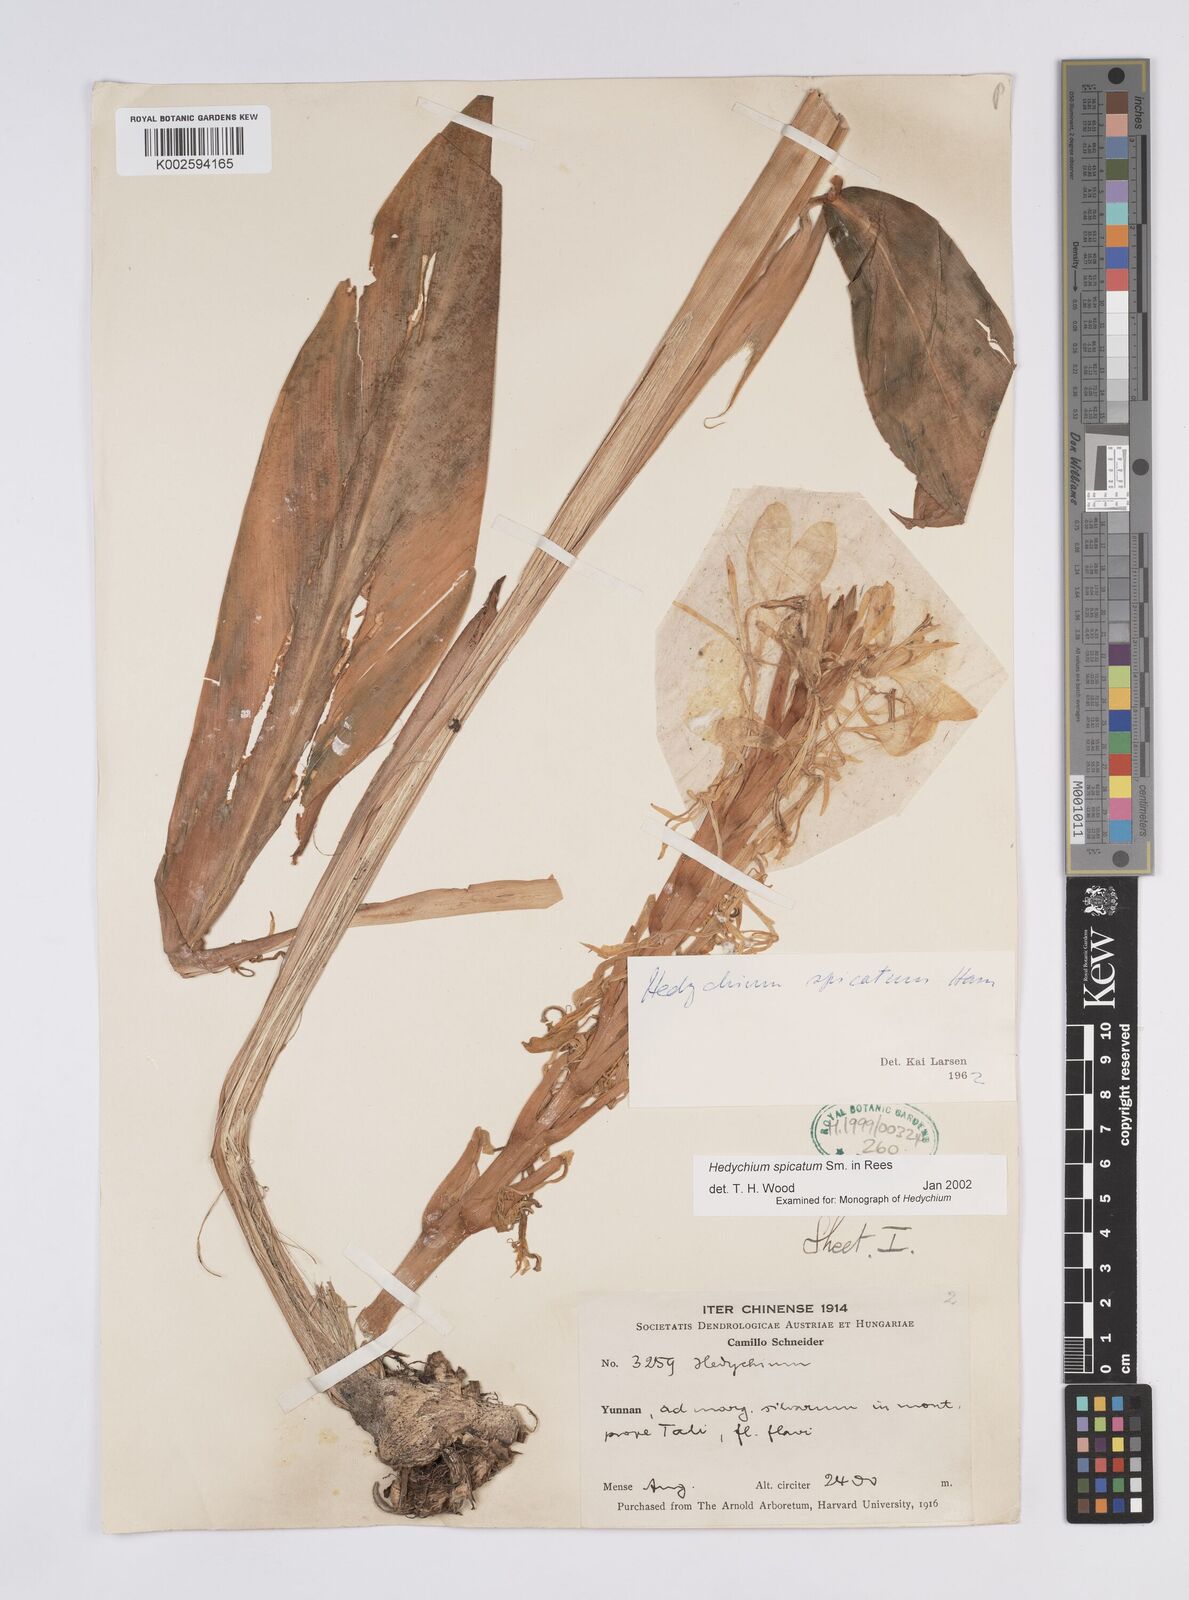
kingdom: Plantae
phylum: Tracheophyta
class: Liliopsida
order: Zingiberales
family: Zingiberaceae
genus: Hedychium
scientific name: Hedychium spicatum
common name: Spiked ginger-lily
